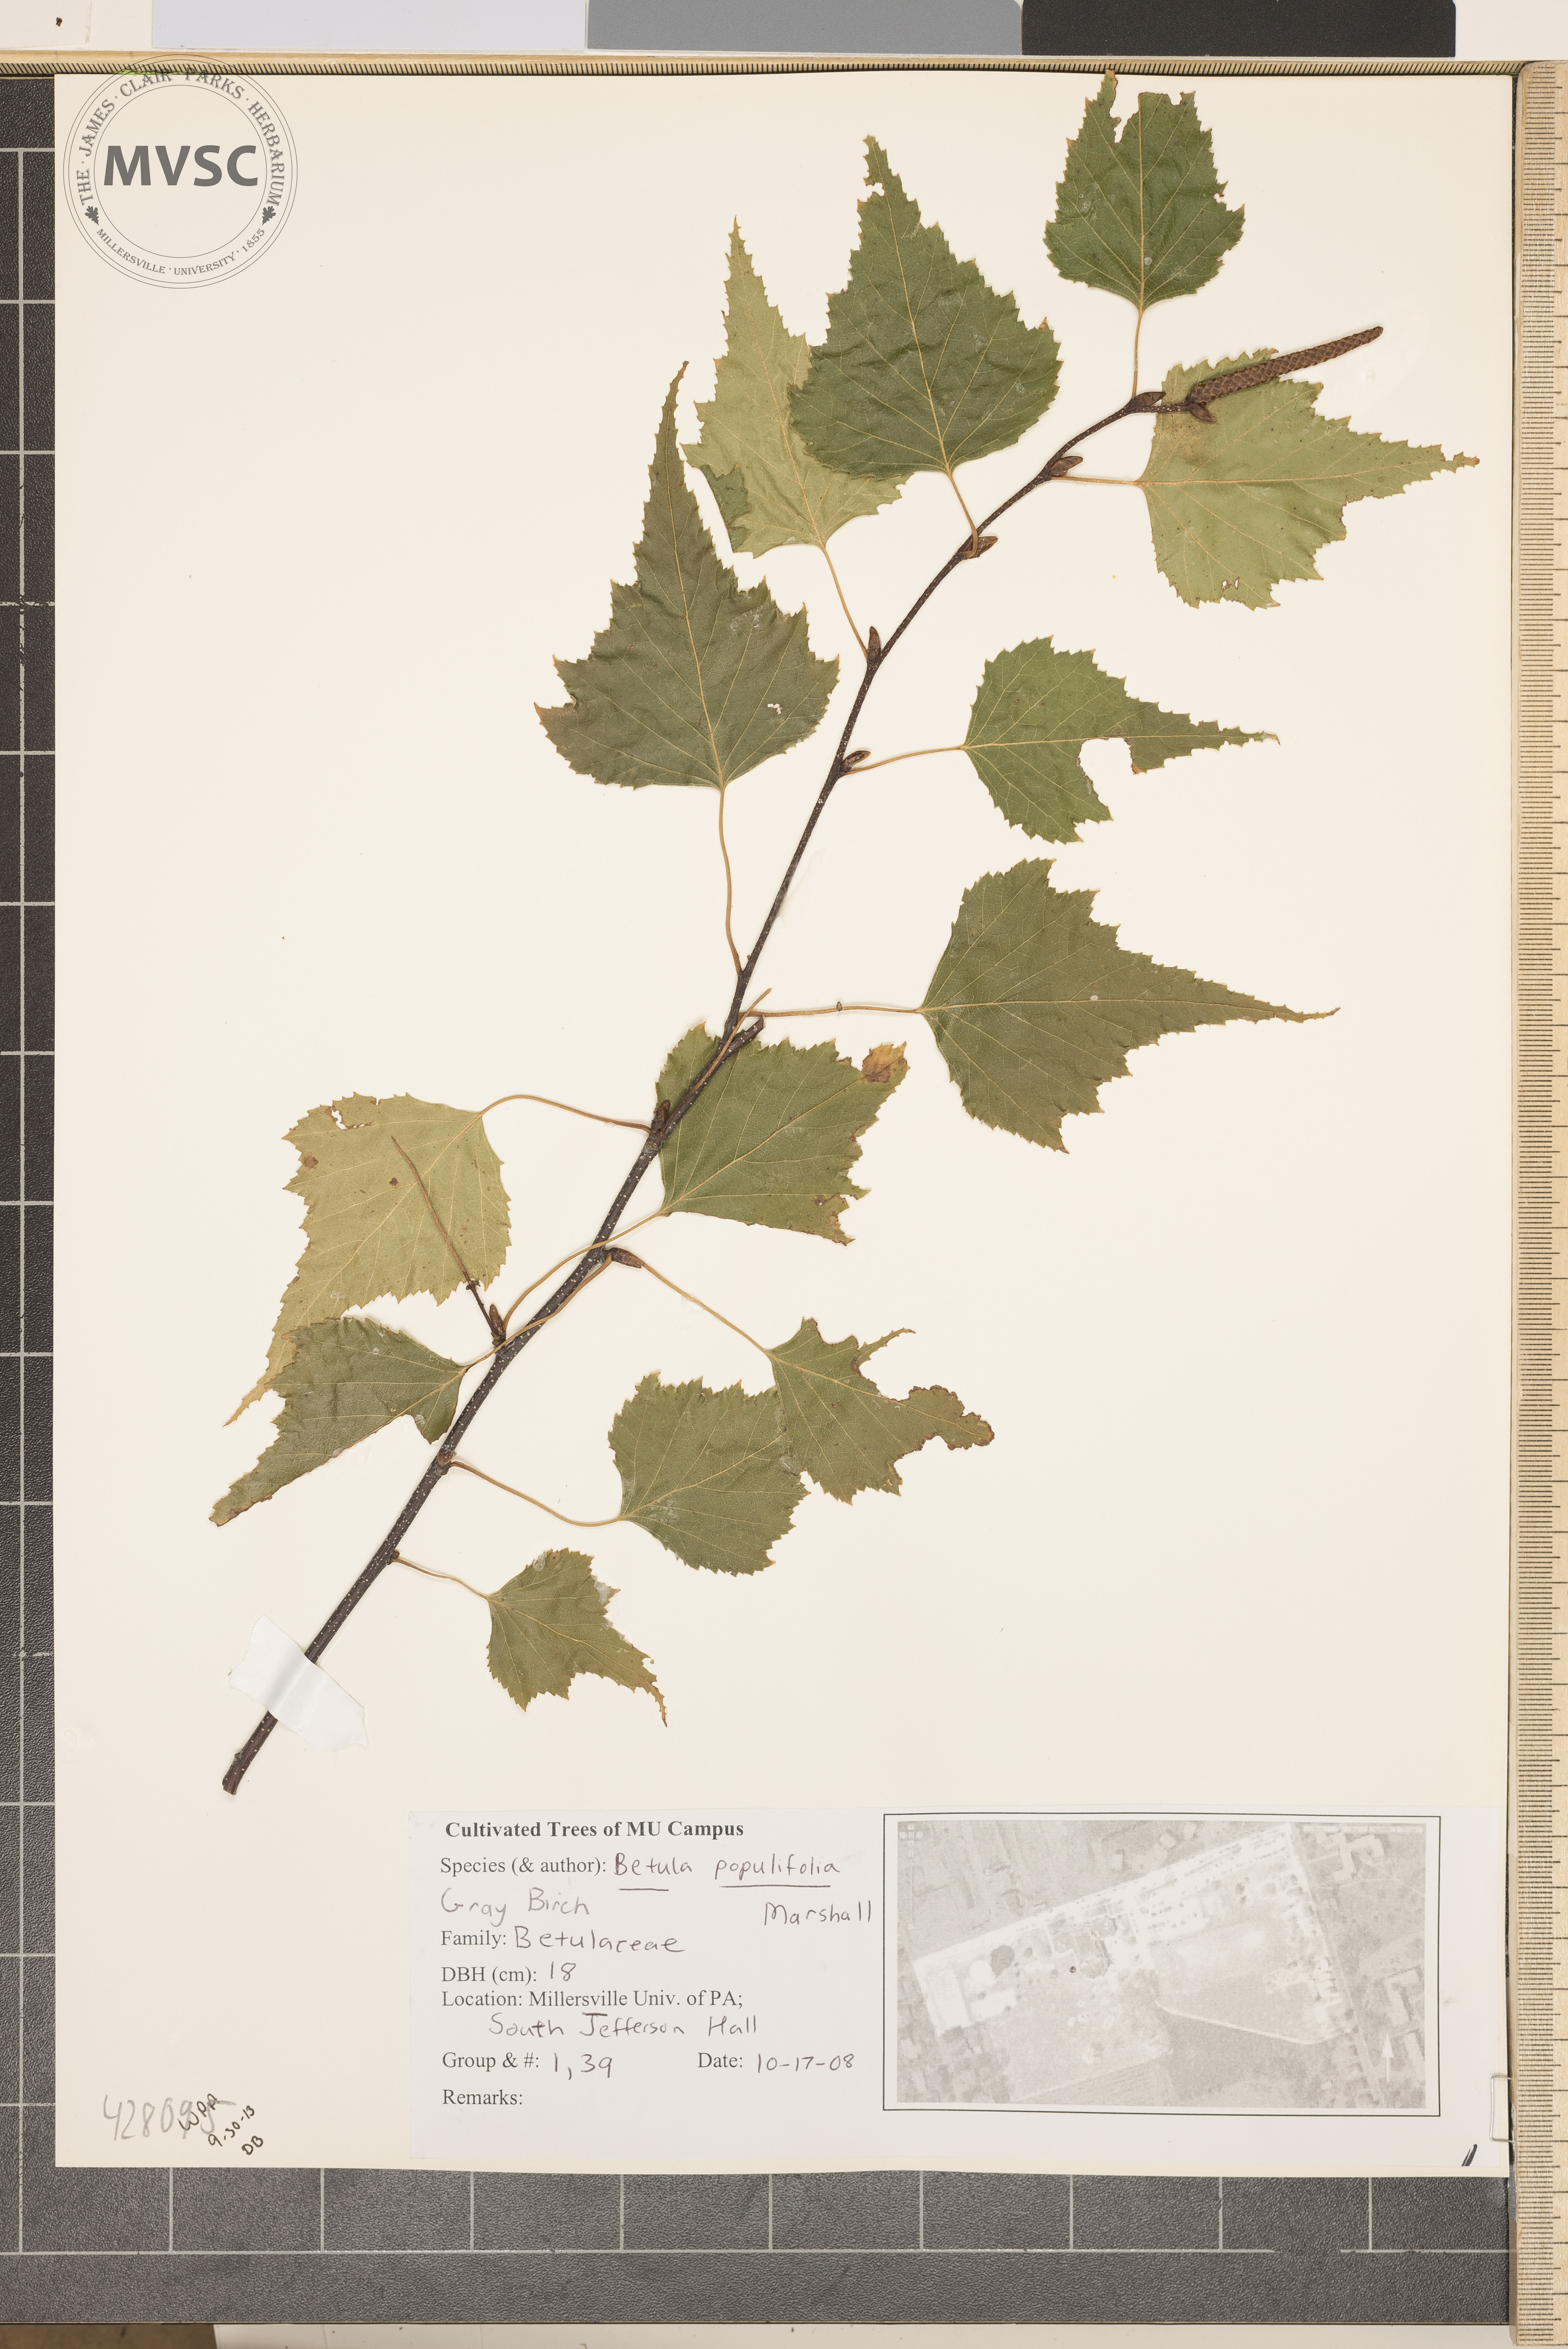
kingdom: Plantae
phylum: Tracheophyta
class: Magnoliopsida
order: Fagales
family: Betulaceae
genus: Betula
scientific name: Betula populifolia
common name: Grey Birch
